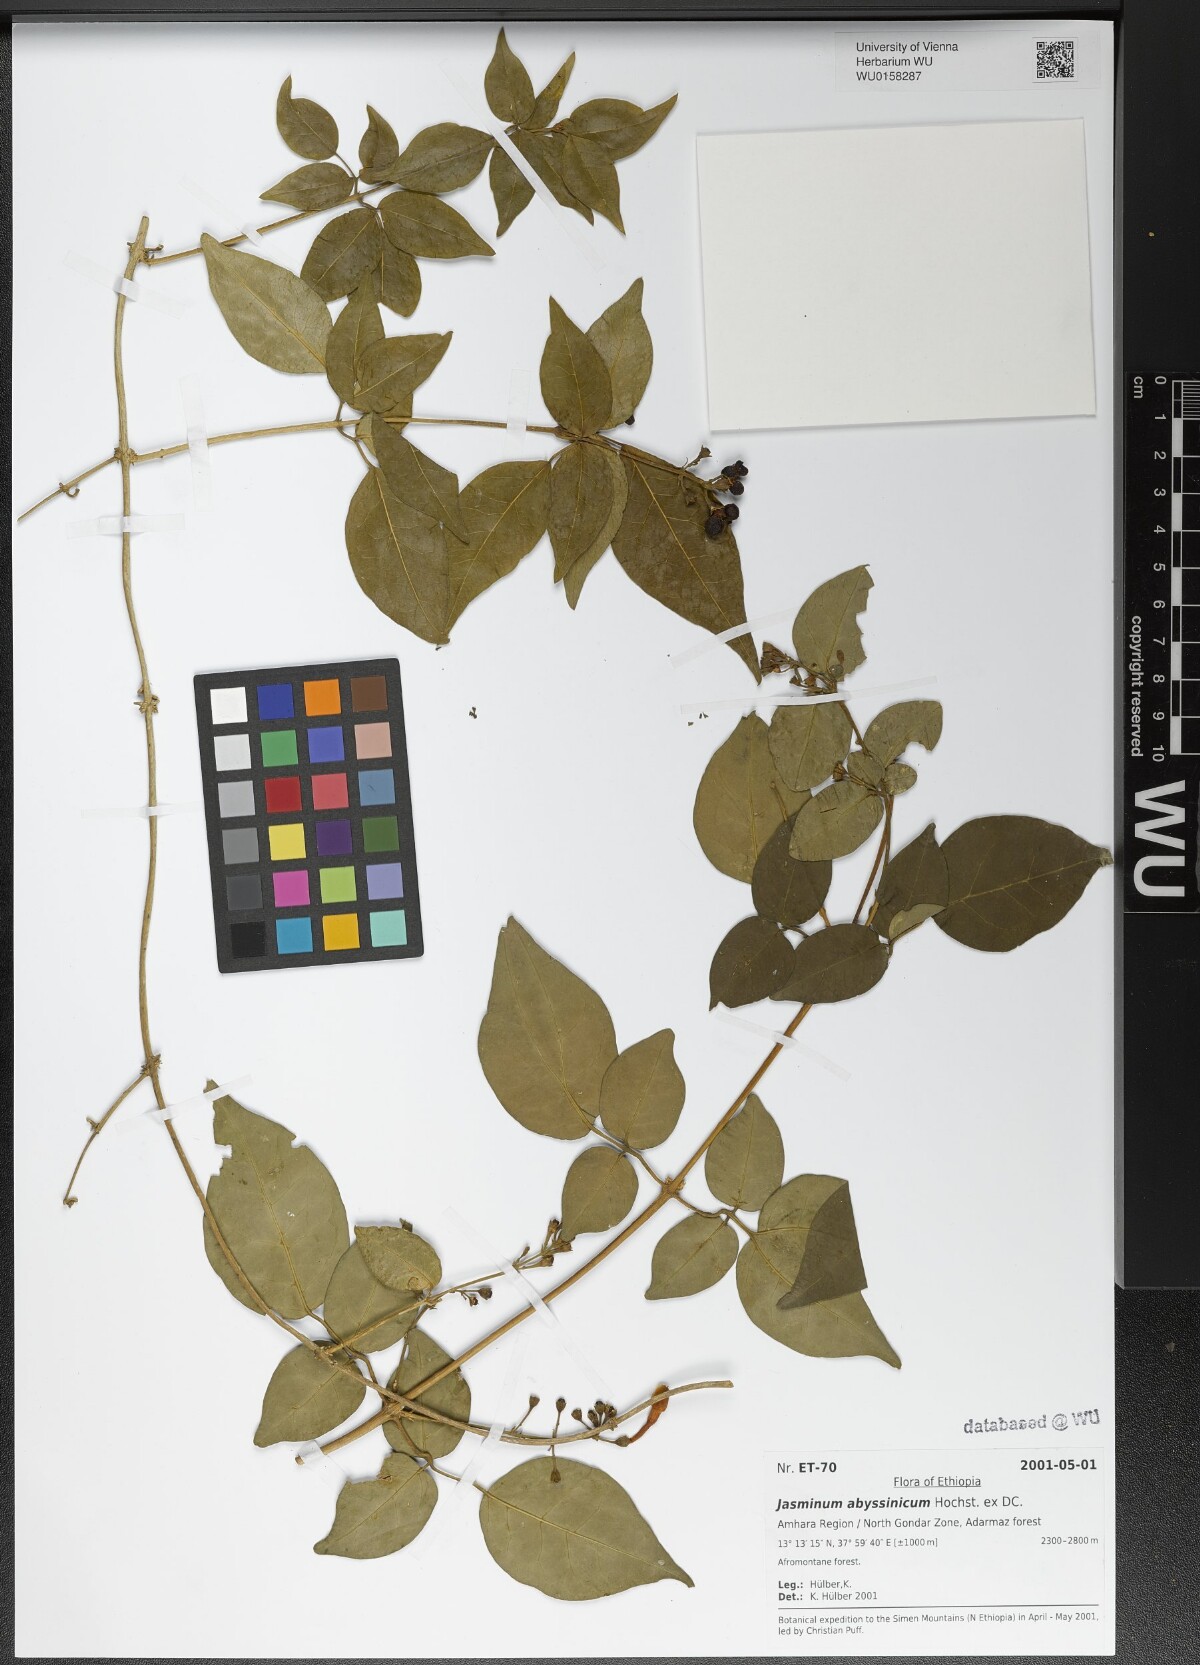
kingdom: Plantae
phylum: Tracheophyta
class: Magnoliopsida
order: Lamiales
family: Oleaceae
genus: Jasminum
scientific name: Jasminum abyssinicum
